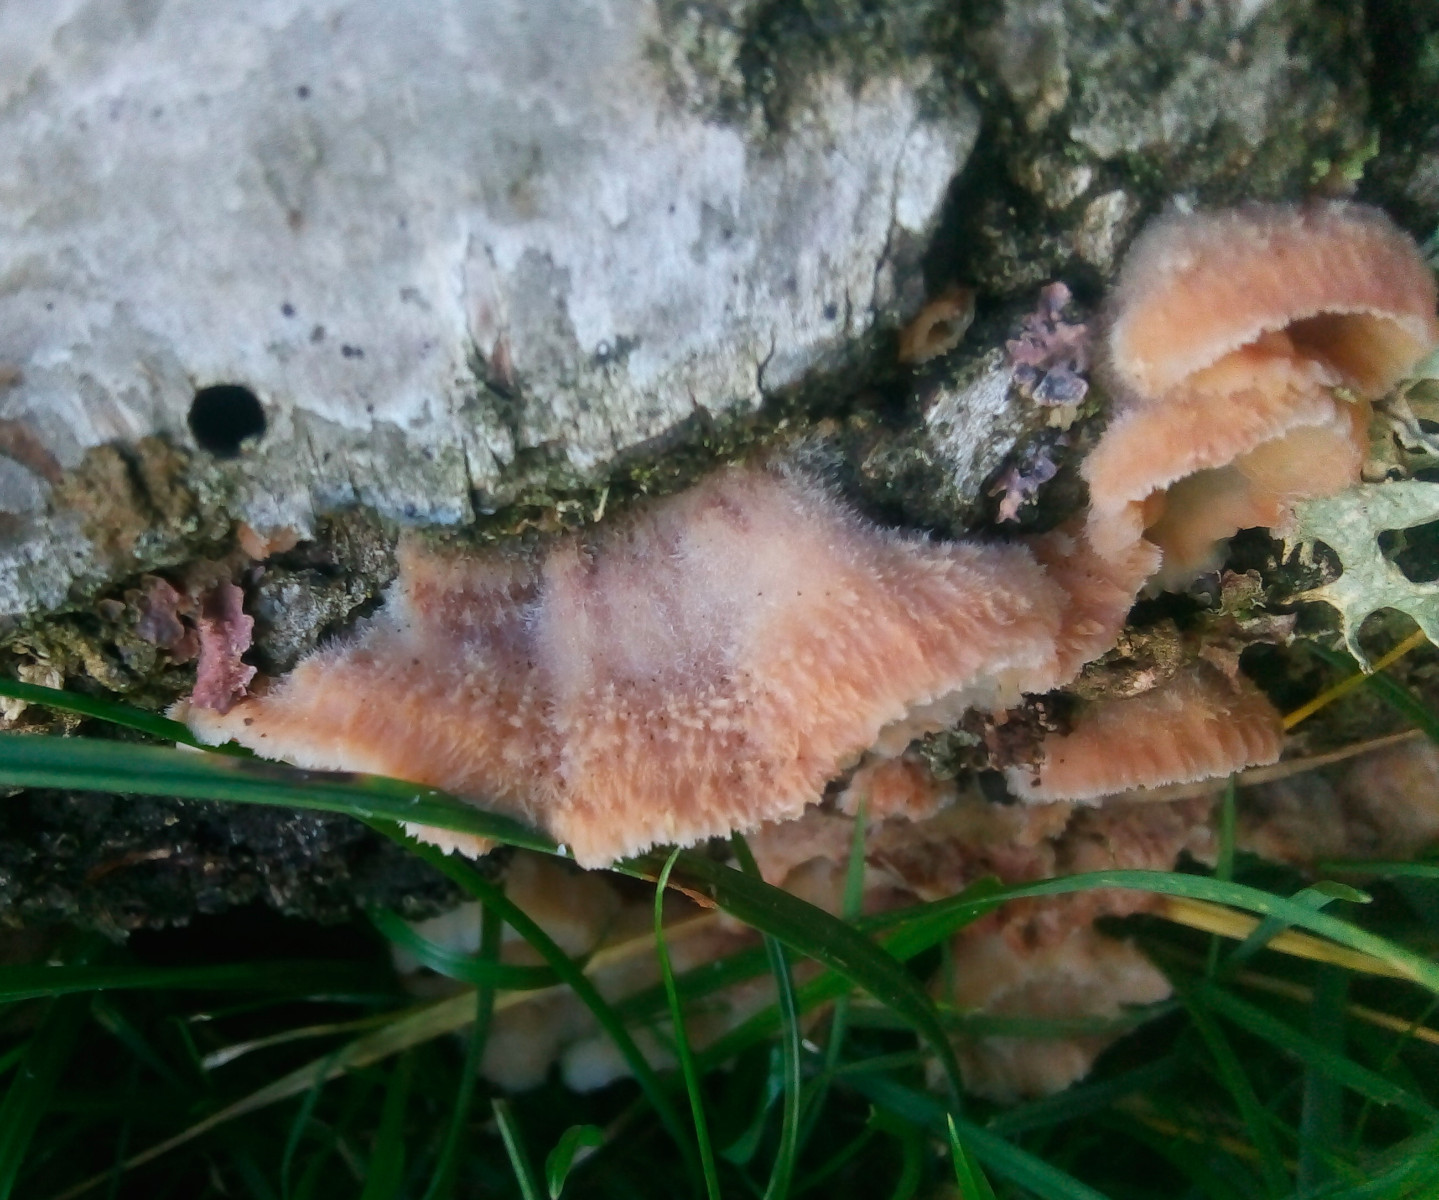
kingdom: Fungi
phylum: Basidiomycota
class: Agaricomycetes
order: Polyporales
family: Meruliaceae
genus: Phlebia
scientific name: Phlebia tremellosa
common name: bævrende åresvamp
